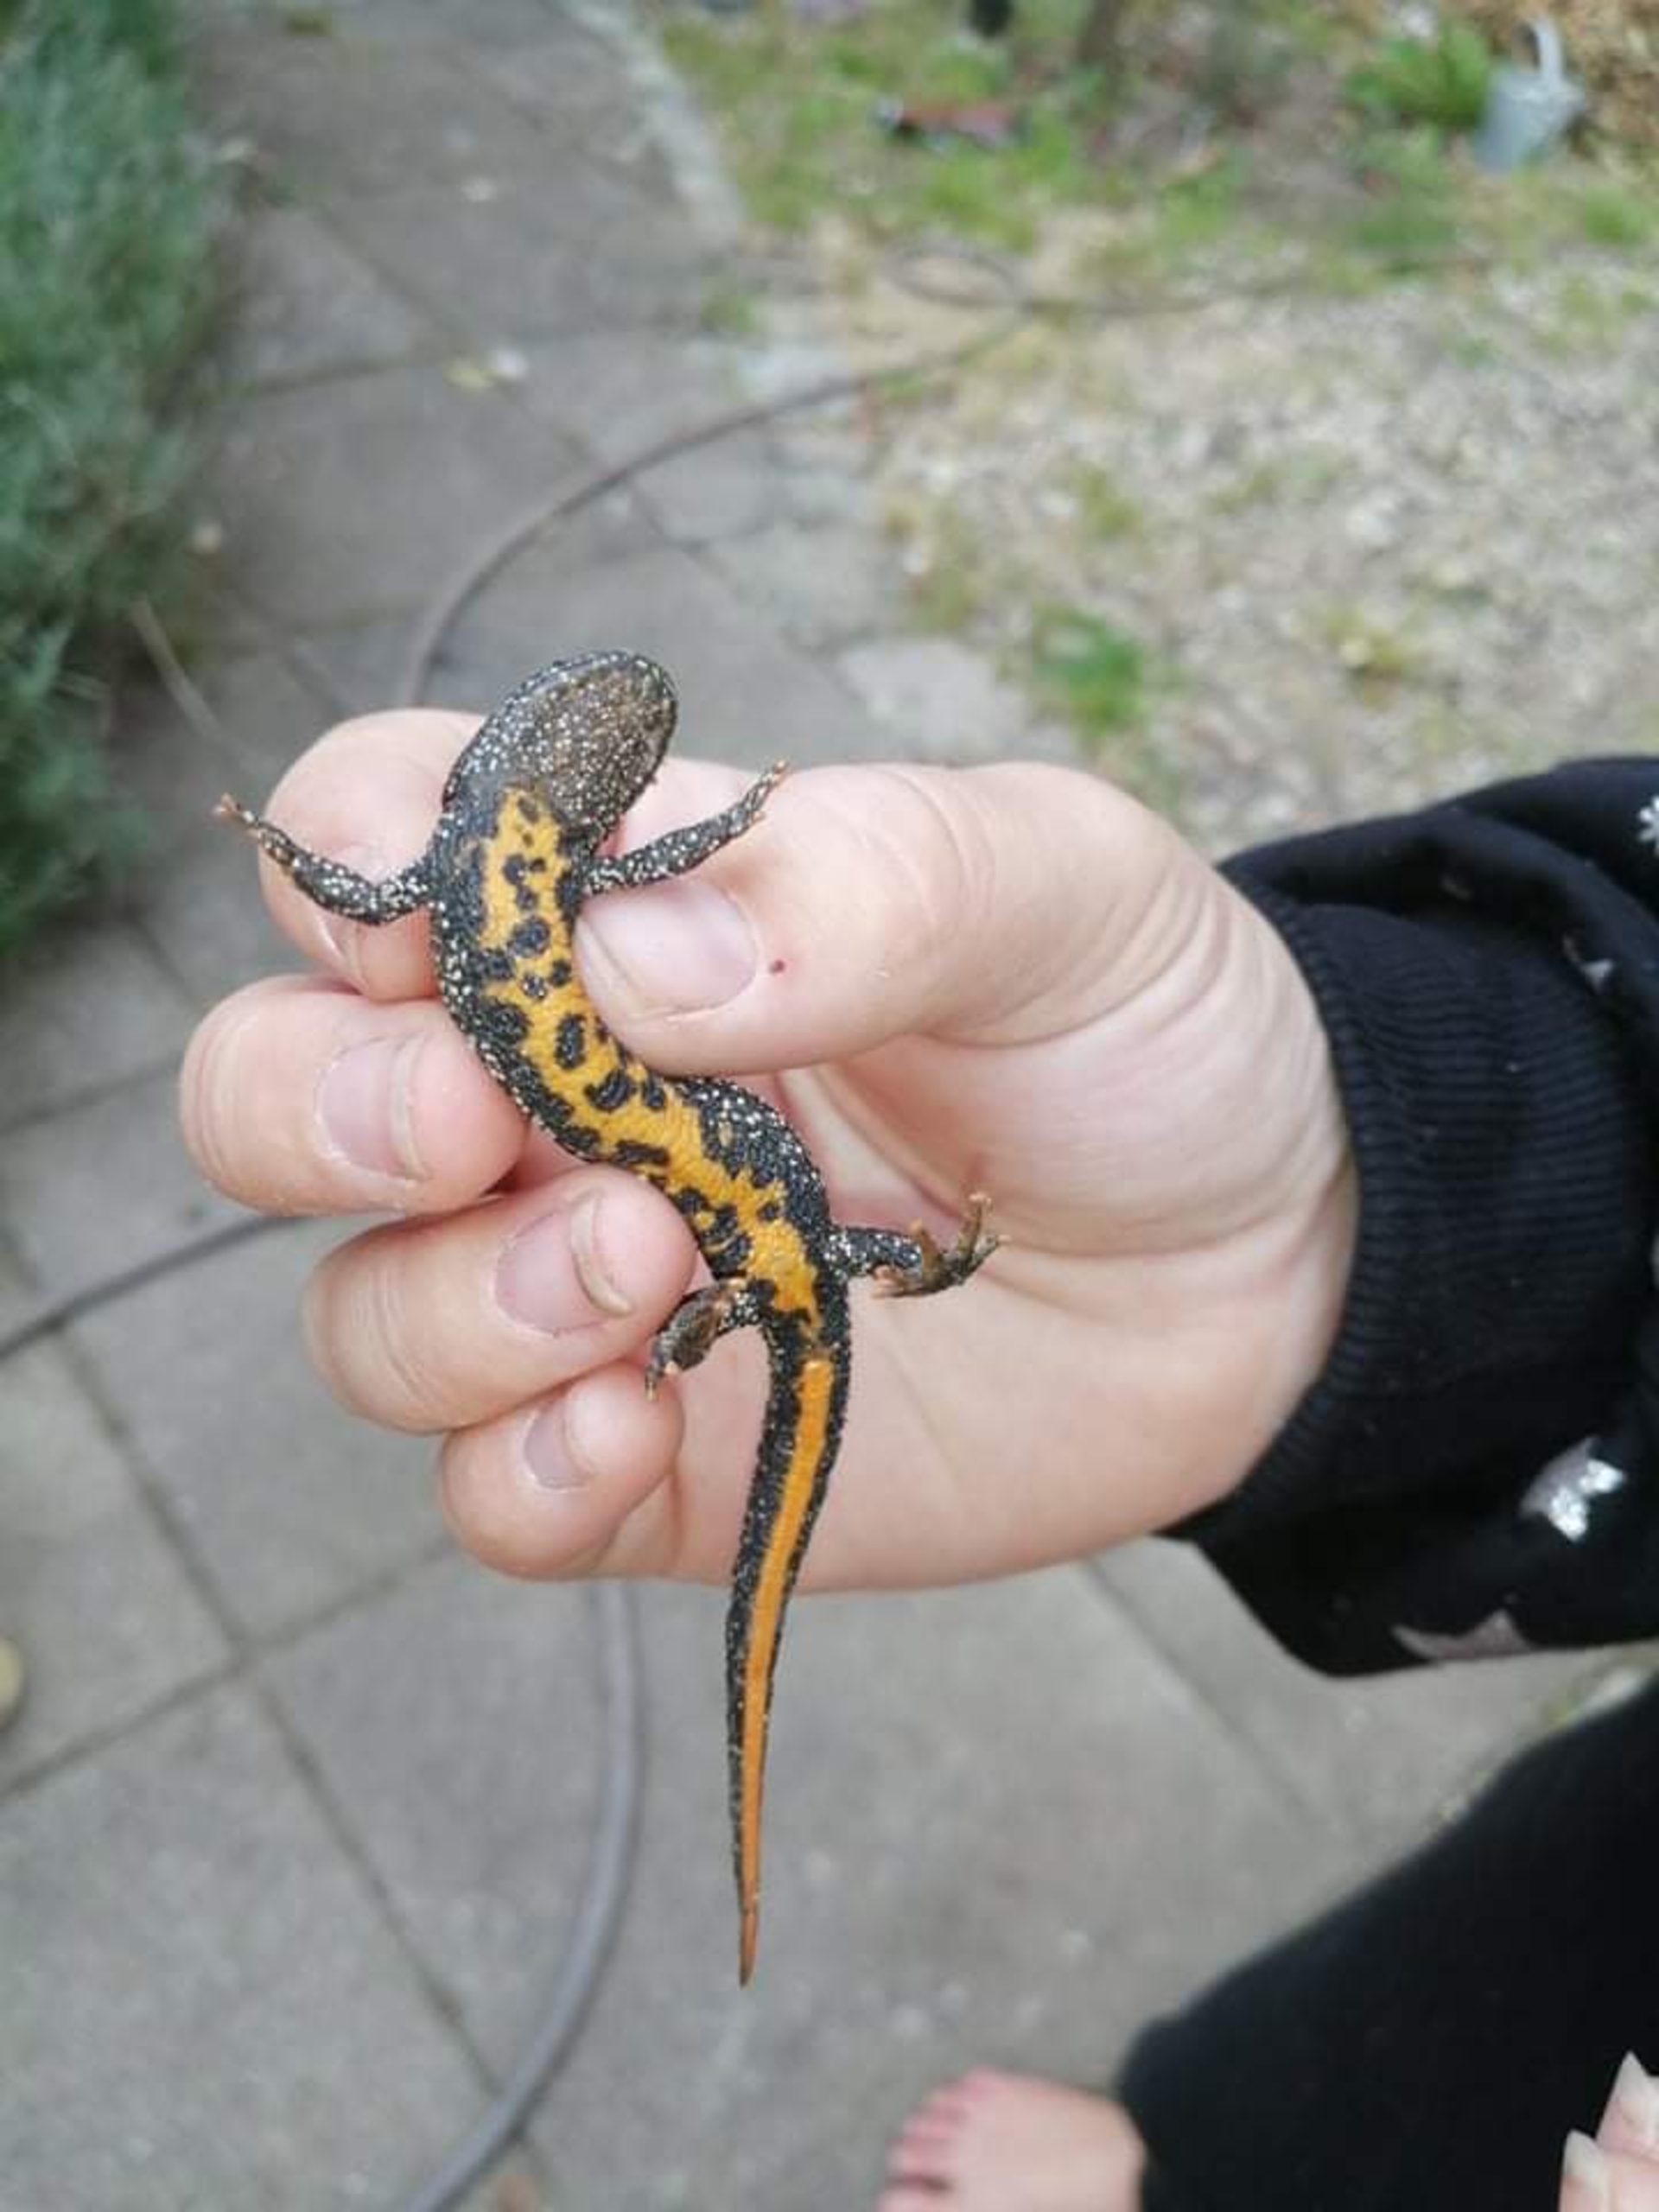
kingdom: Animalia
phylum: Chordata
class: Amphibia
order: Caudata
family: Salamandridae
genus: Triturus
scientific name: Triturus cristatus
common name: Stor vandsalamander
